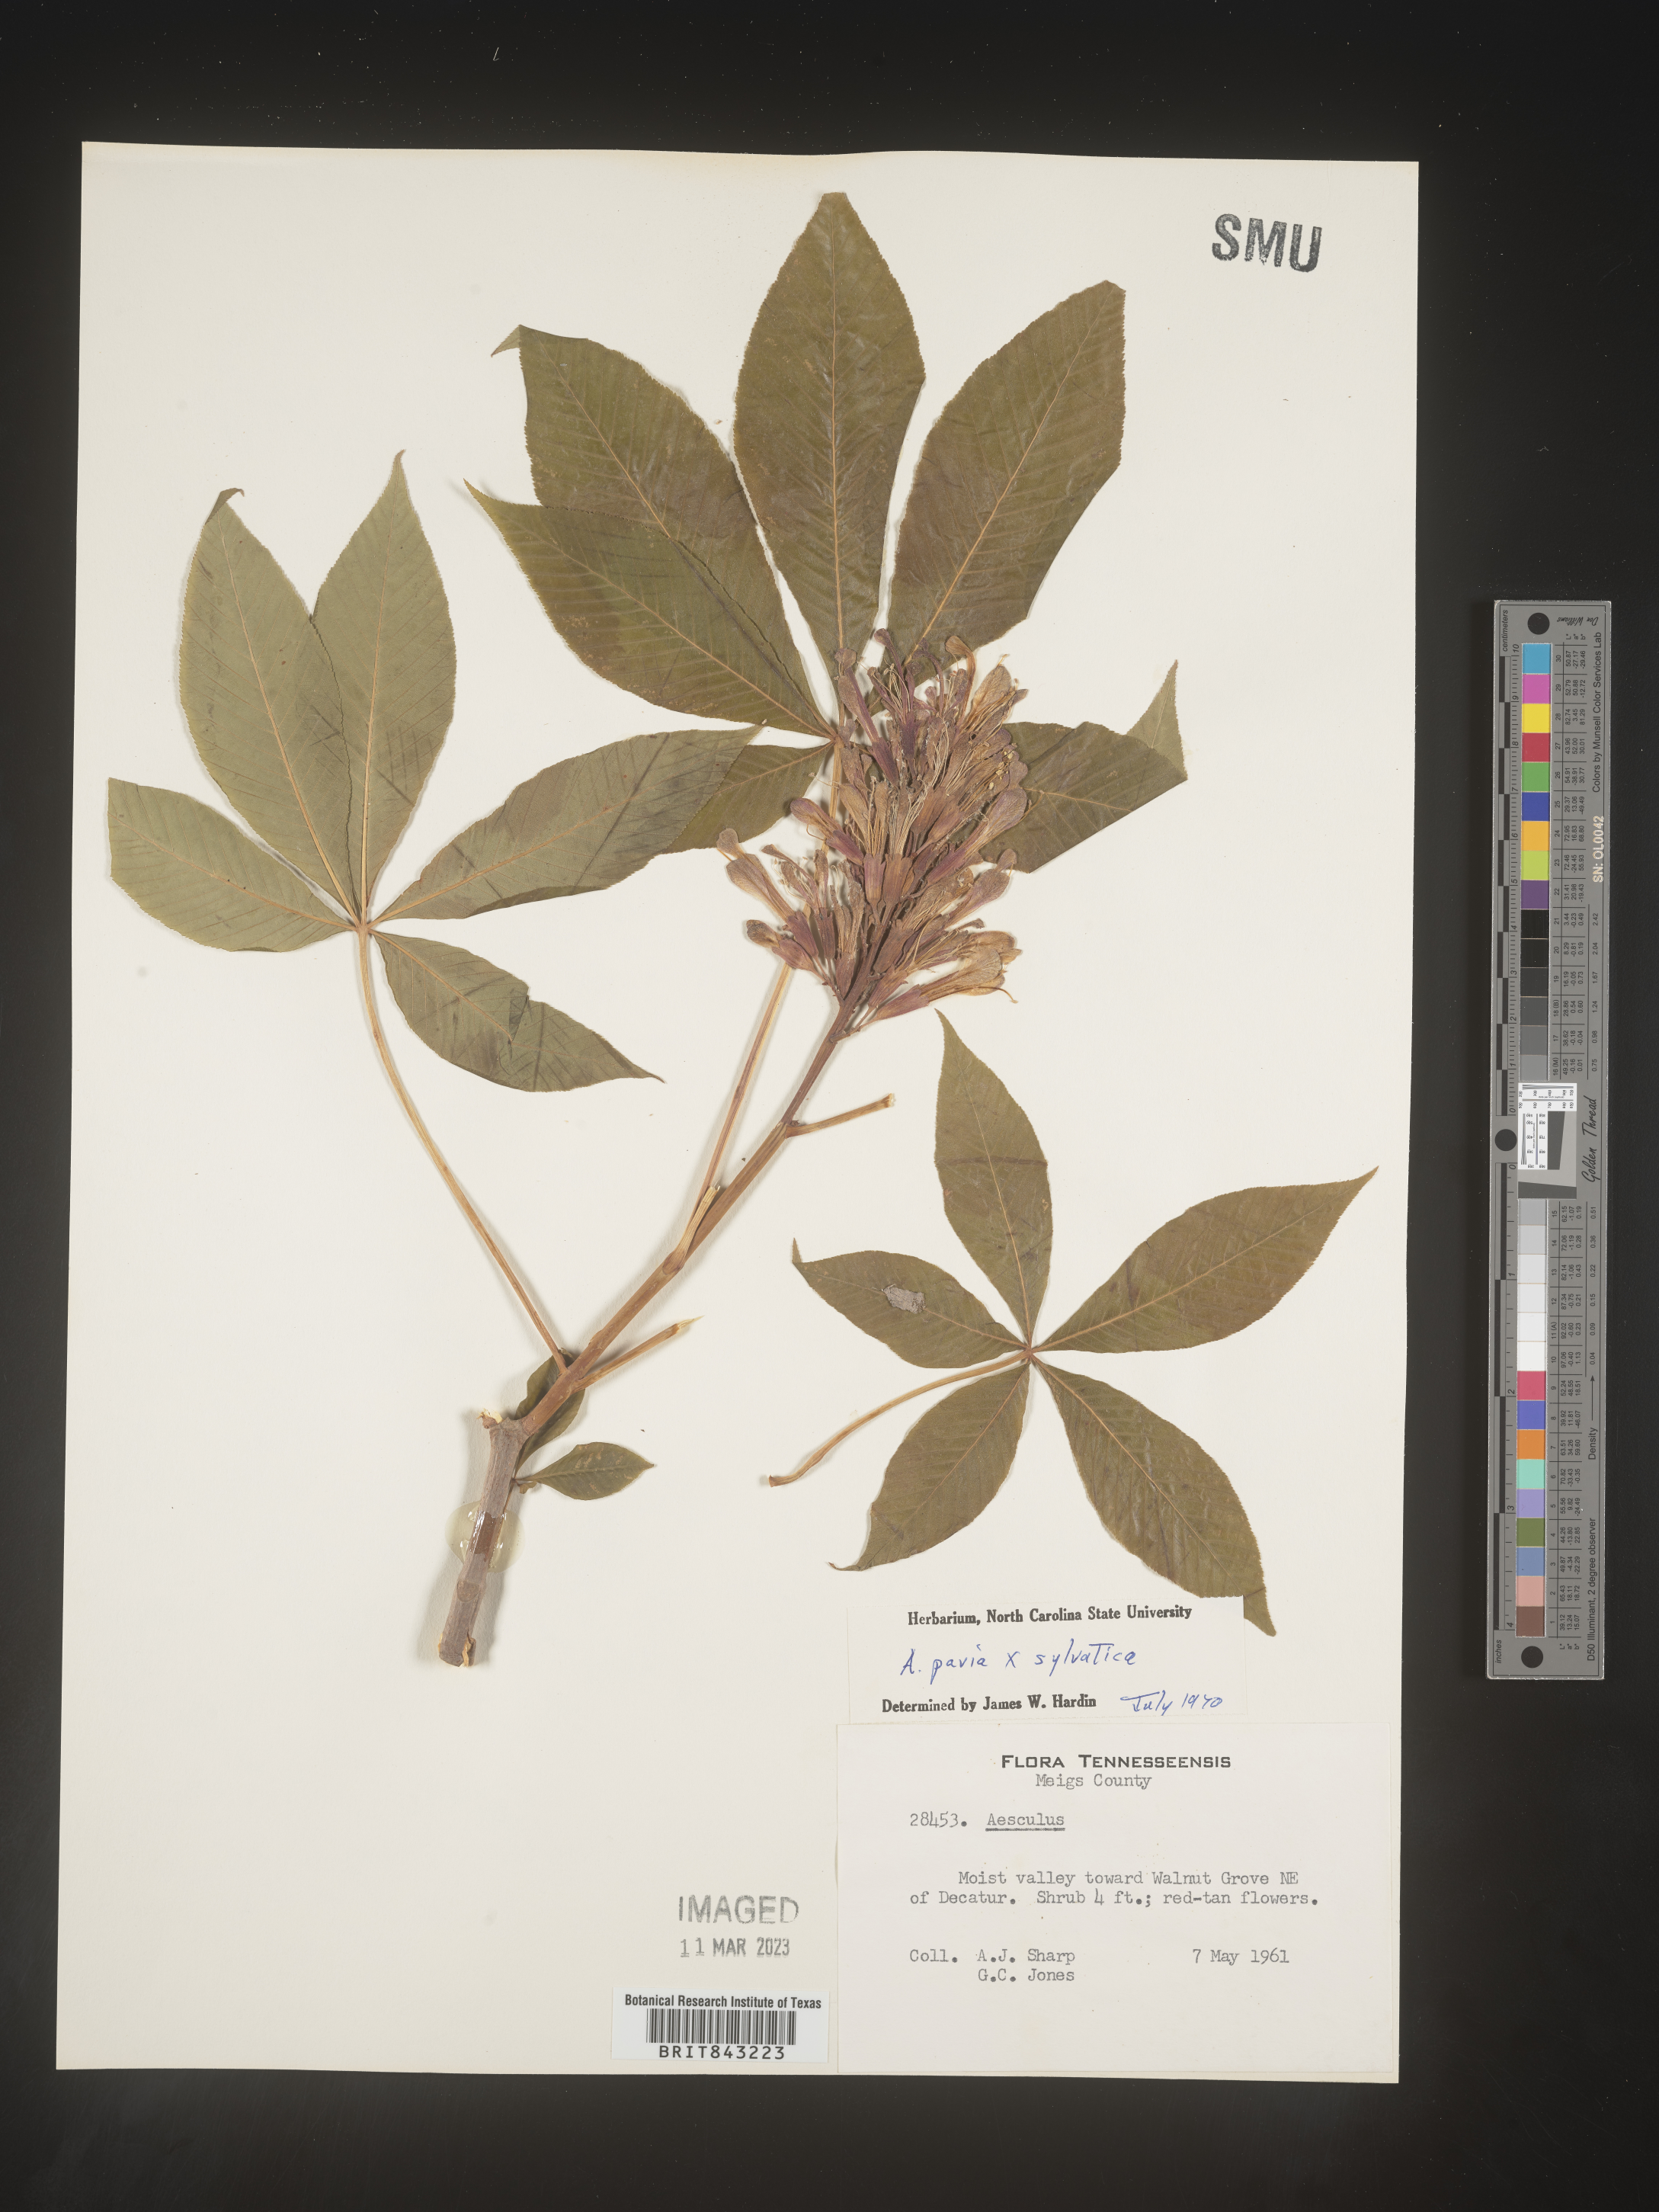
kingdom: Plantae
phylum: Tracheophyta
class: Magnoliopsida
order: Sapindales
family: Sapindaceae
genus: Aesculus
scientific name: Aesculus
